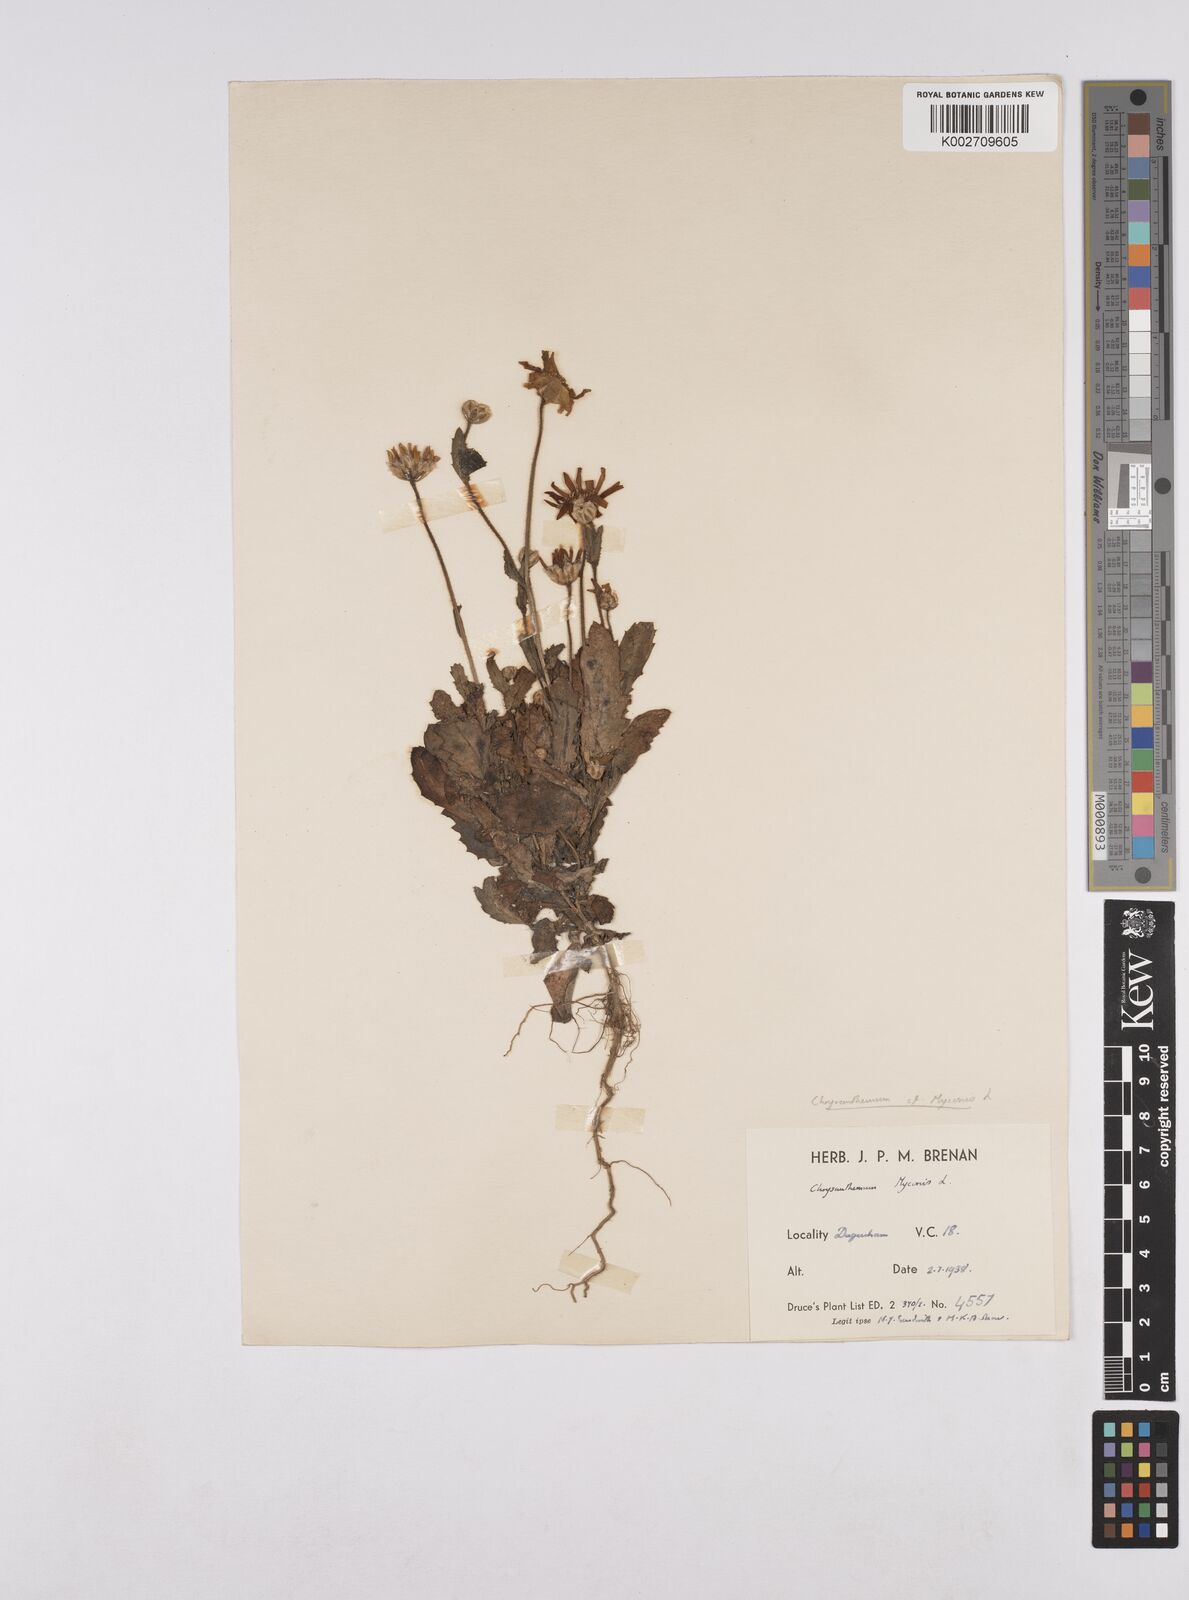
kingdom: Plantae
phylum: Tracheophyta
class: Magnoliopsida
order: Asterales
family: Asteraceae
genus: Coleostephus
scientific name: Coleostephus myconis
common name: Mediterranean marigold
